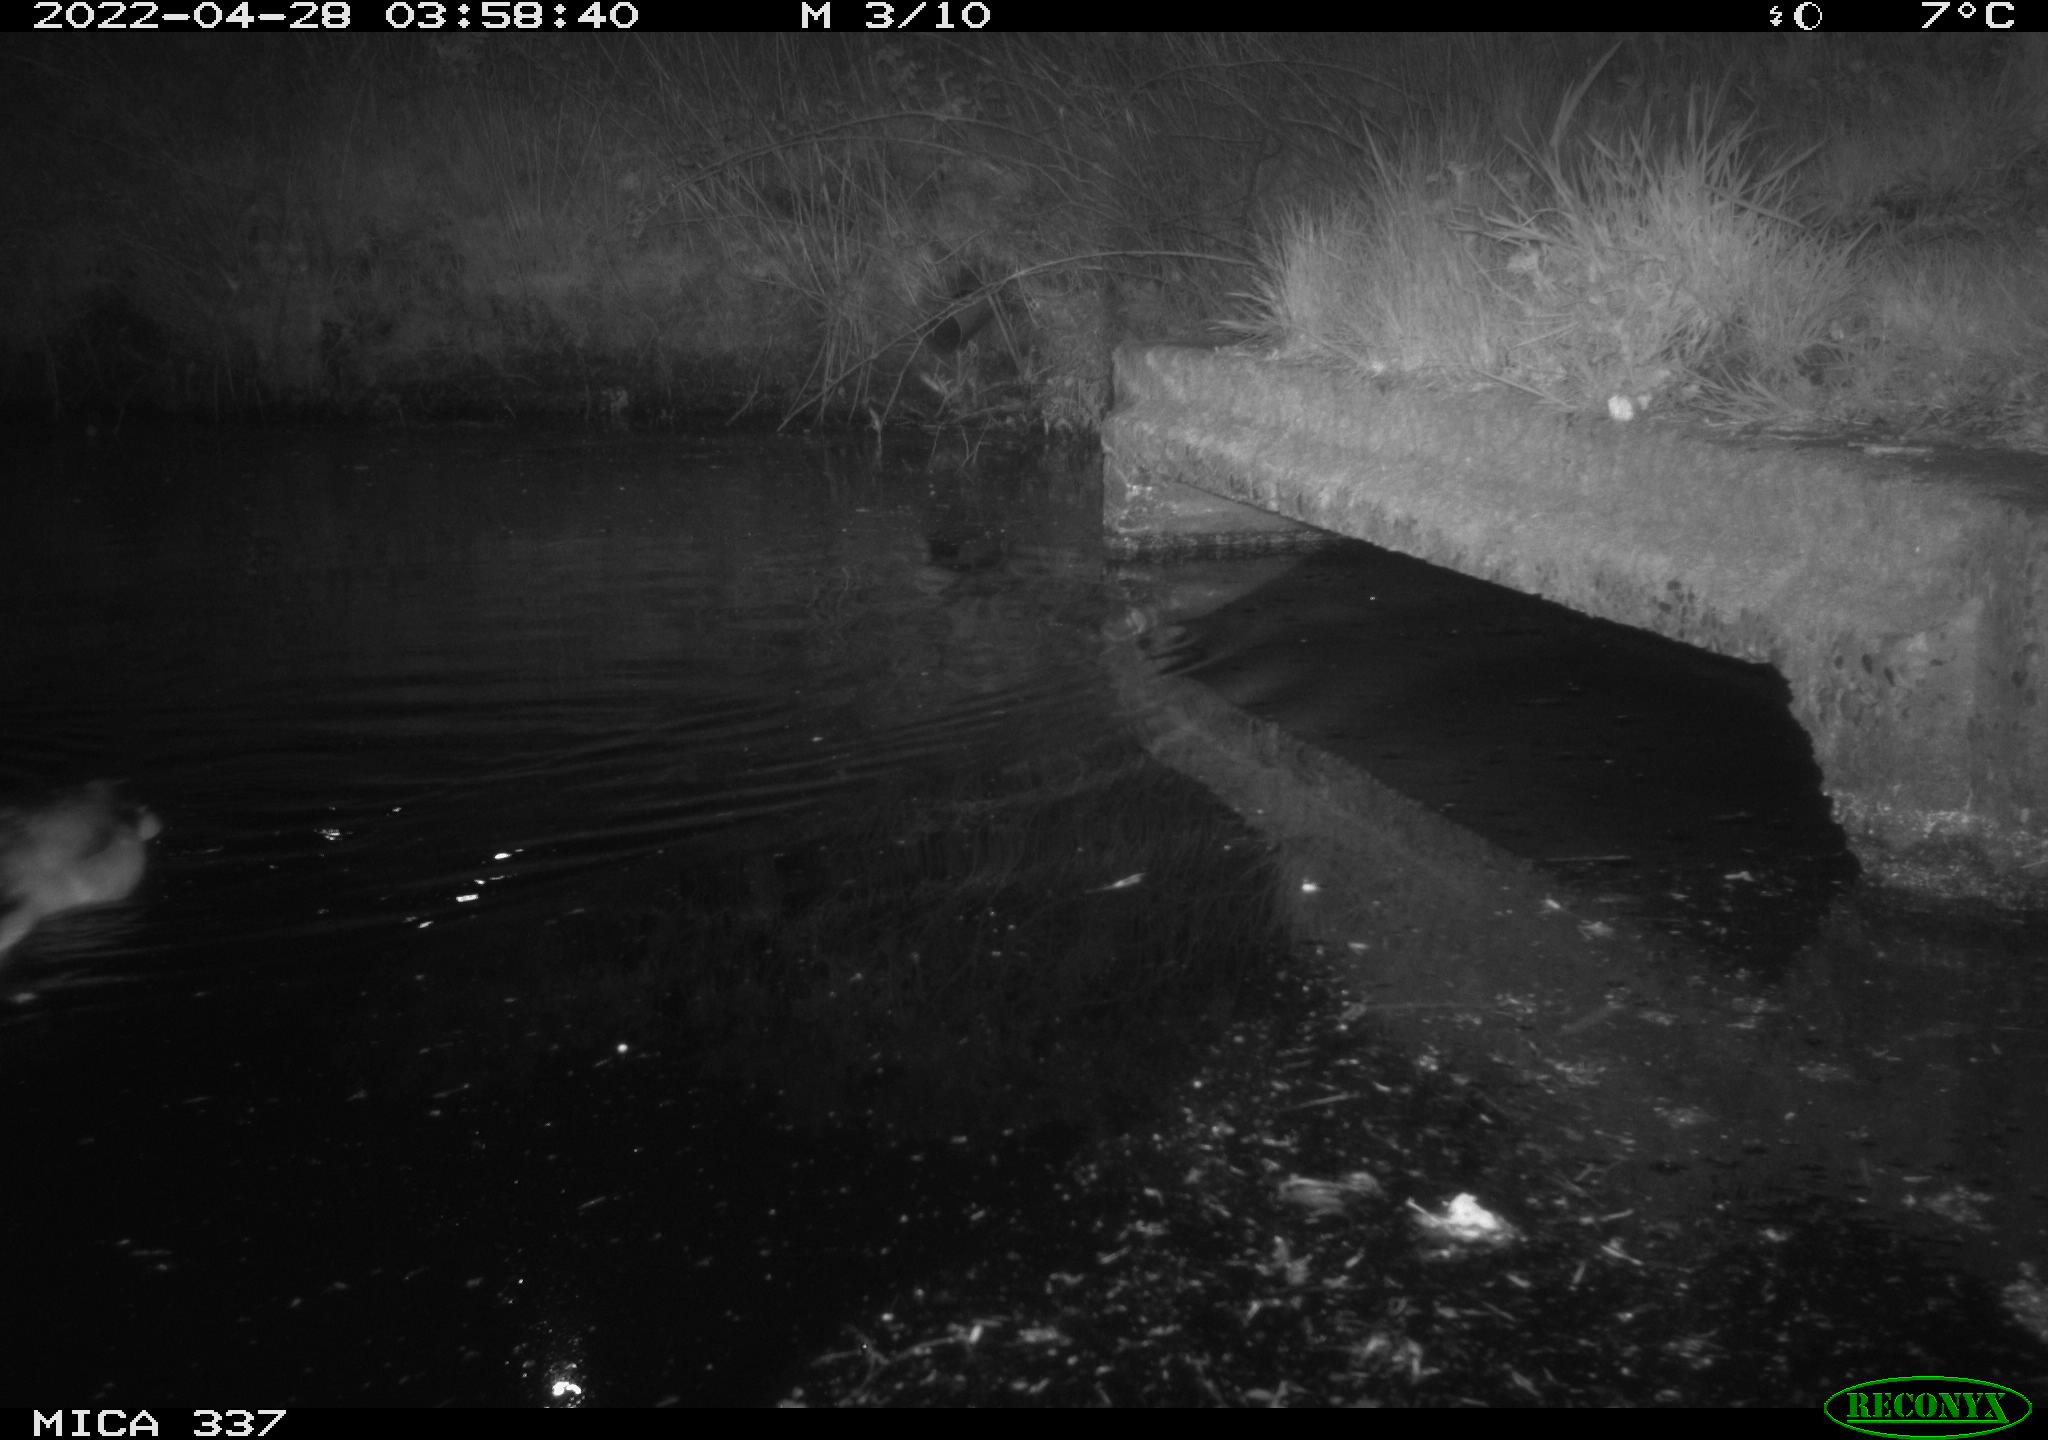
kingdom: Animalia
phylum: Chordata
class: Aves
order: Anseriformes
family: Anatidae
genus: Anas
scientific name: Anas platyrhynchos
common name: Mallard
